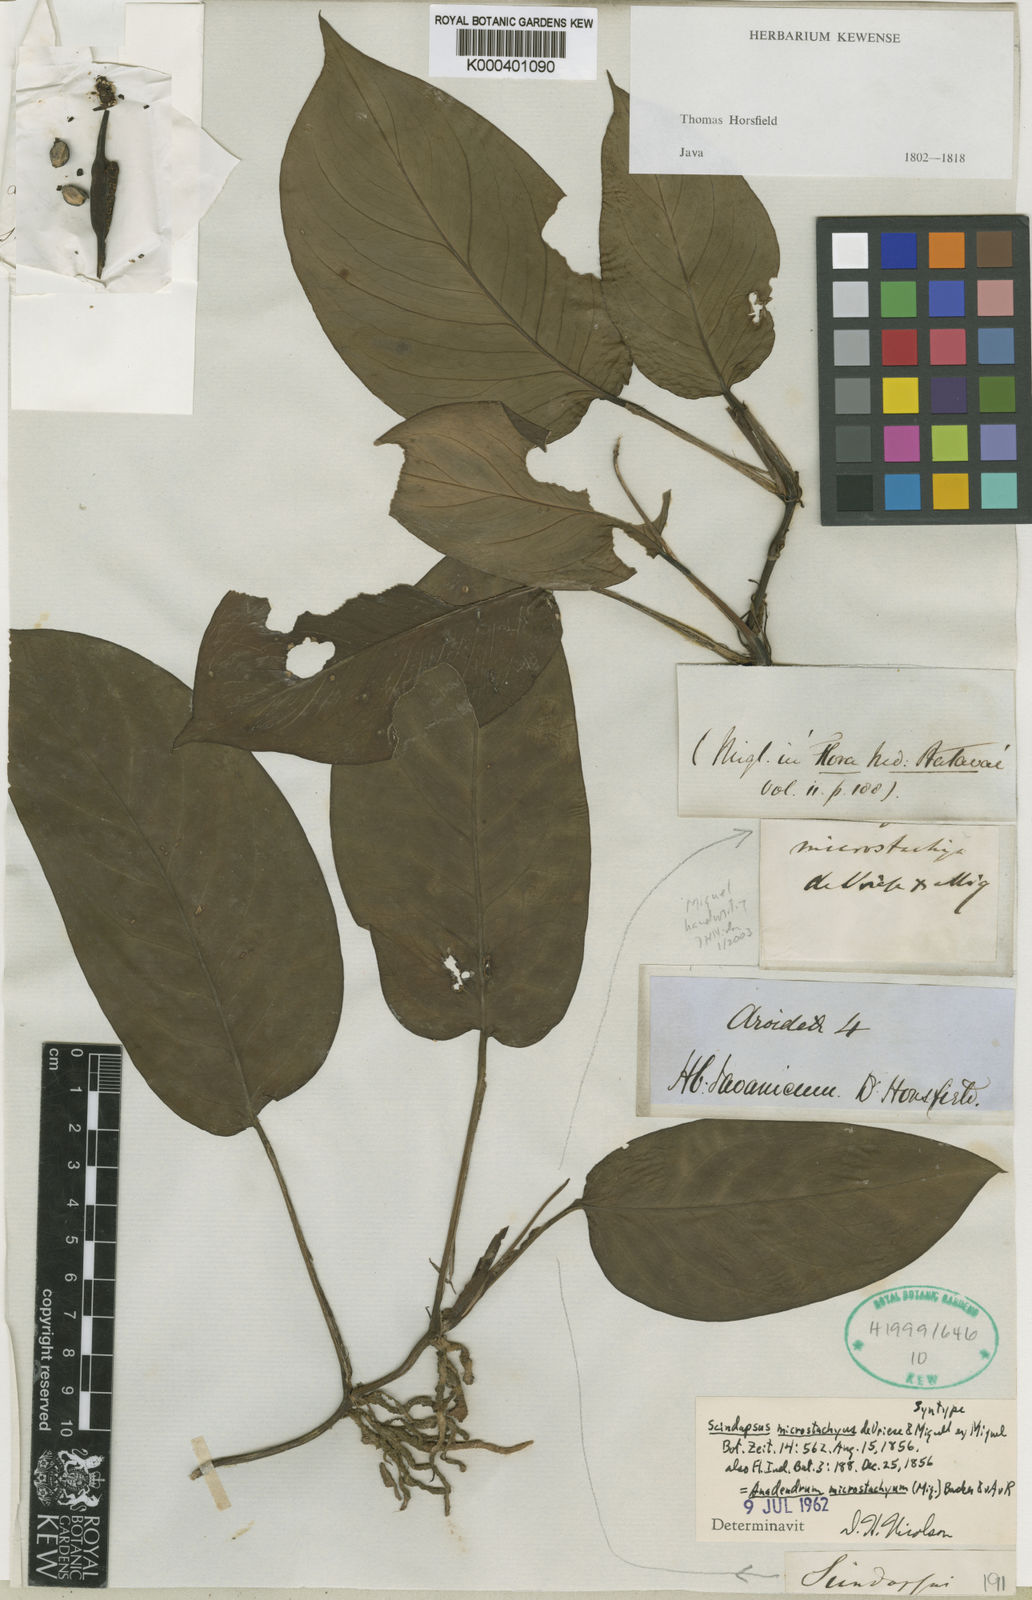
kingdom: Plantae
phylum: Tracheophyta
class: Liliopsida
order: Alismatales
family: Araceae
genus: Anadendrum
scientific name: Anadendrum microstachyum
